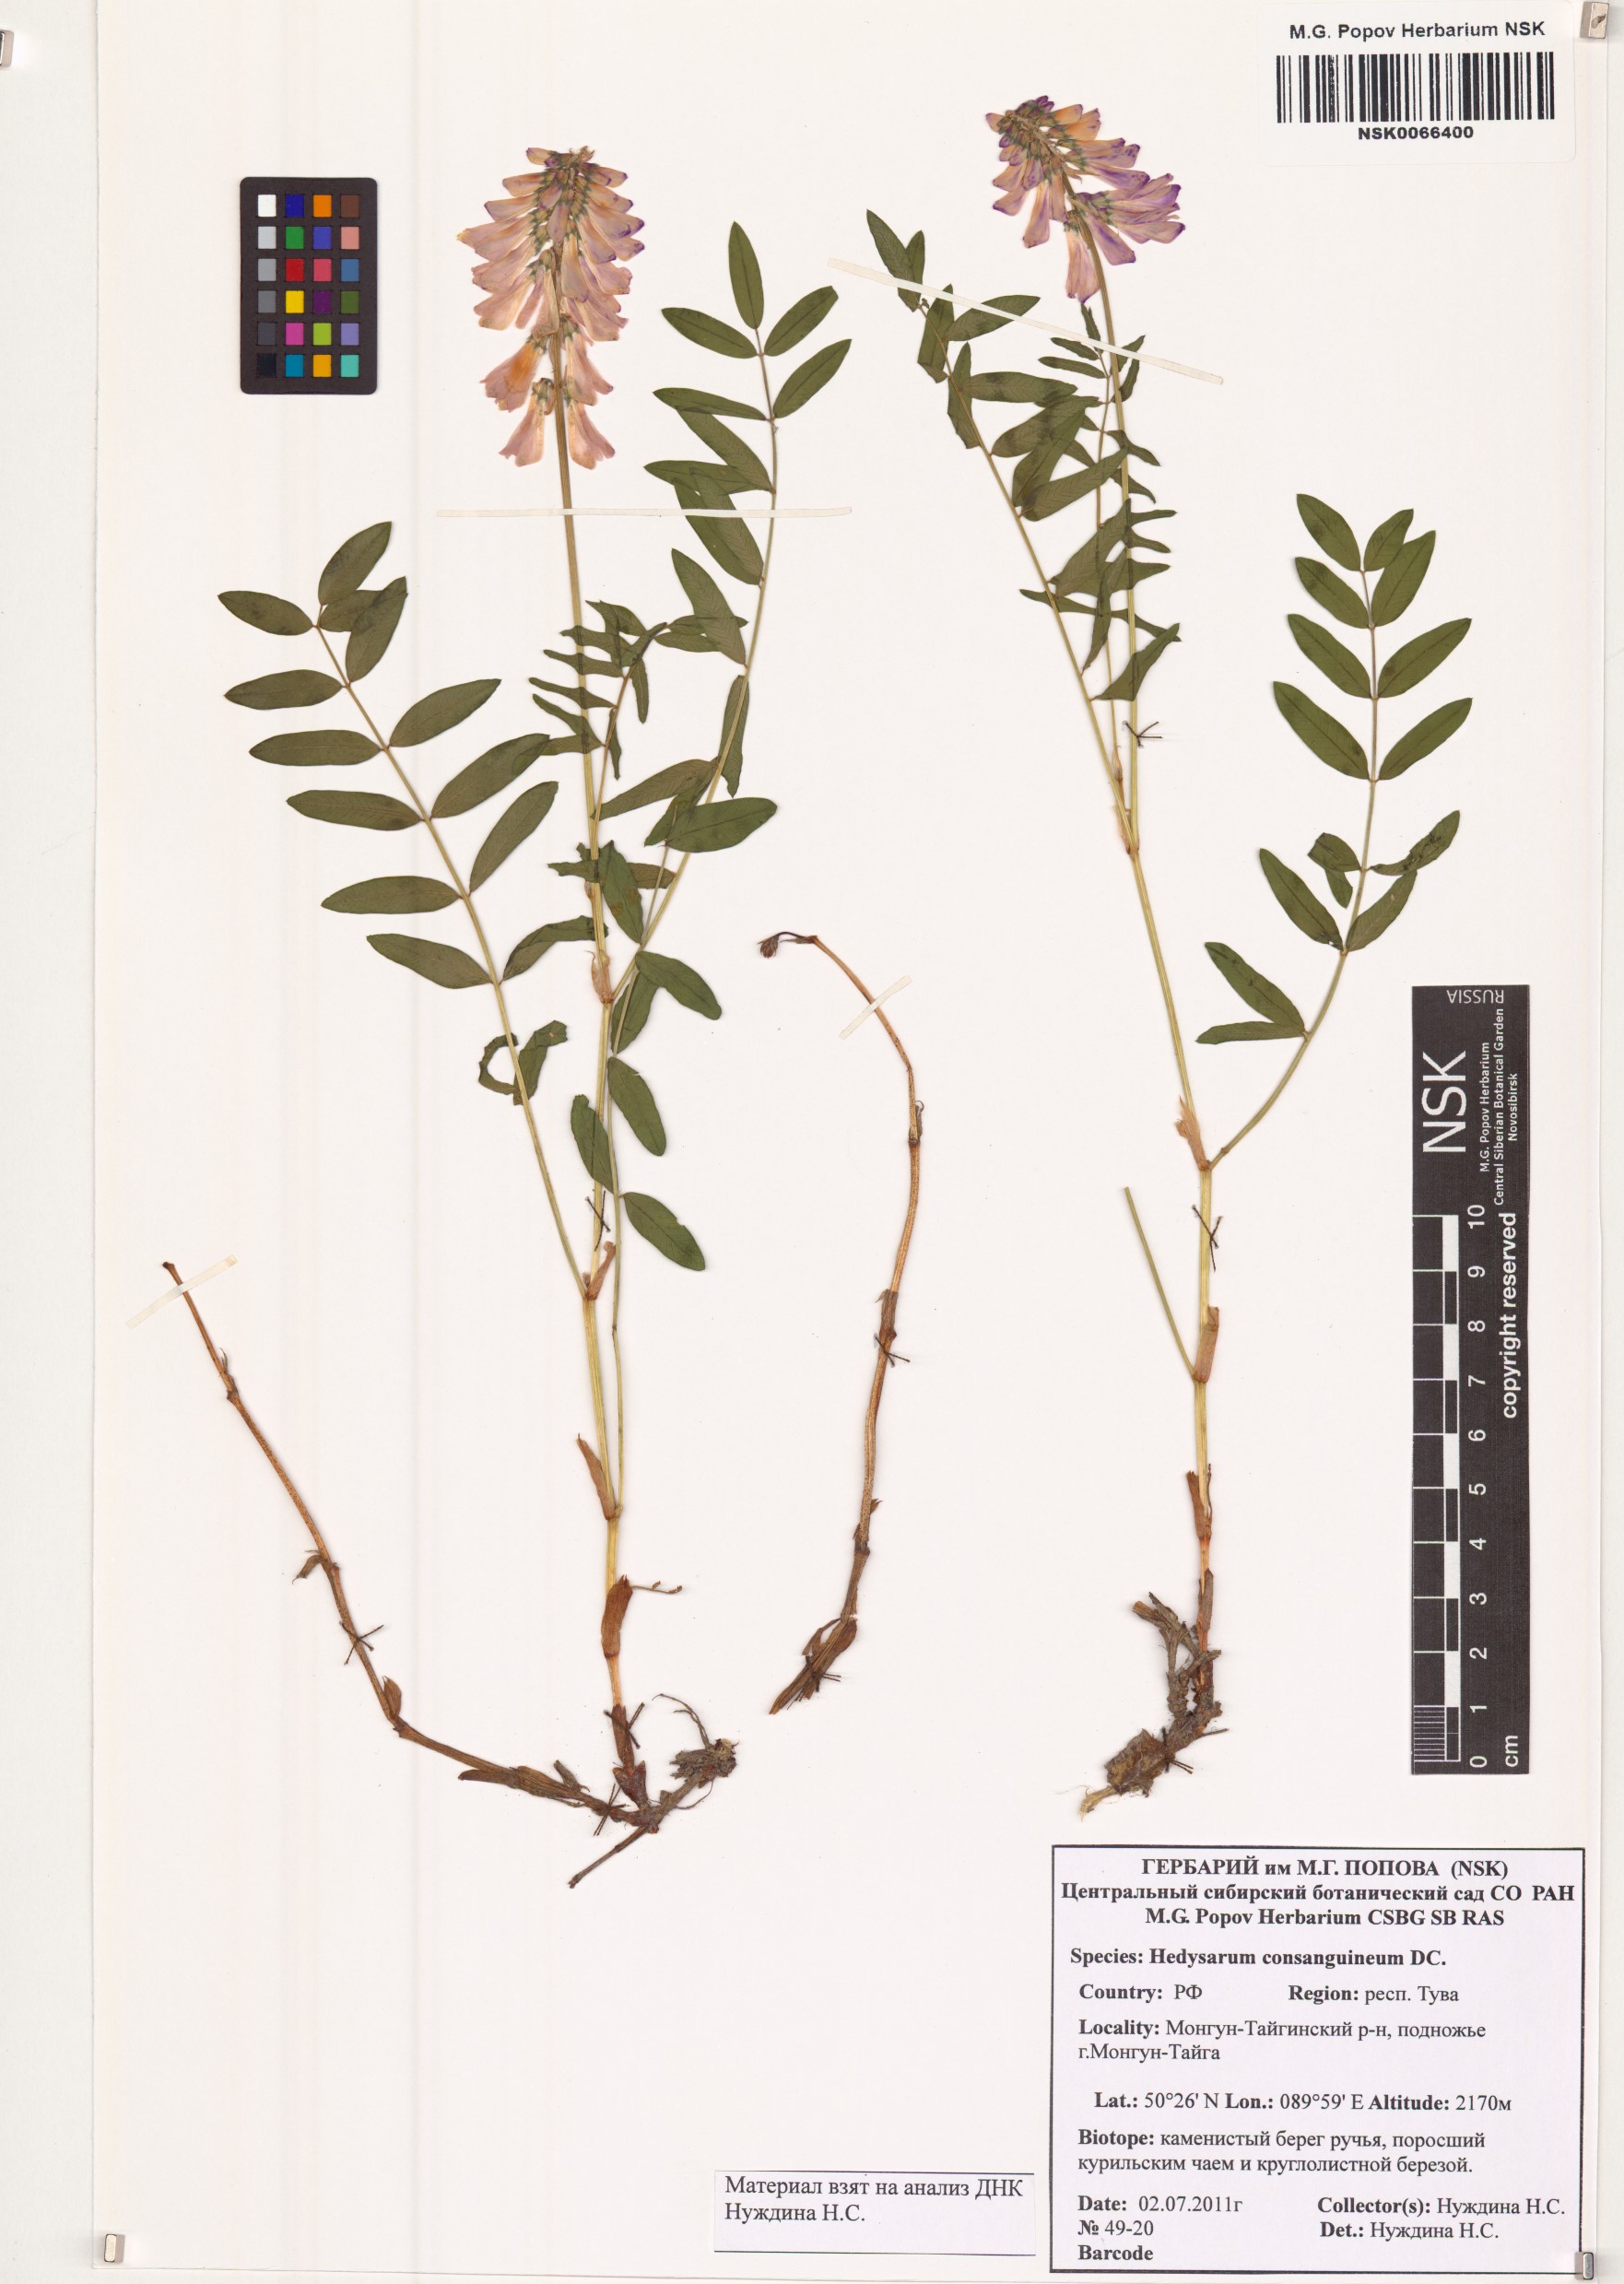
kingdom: Plantae
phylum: Tracheophyta
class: Magnoliopsida
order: Fabales
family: Fabaceae
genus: Hedysarum
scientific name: Hedysarum consanguineum
